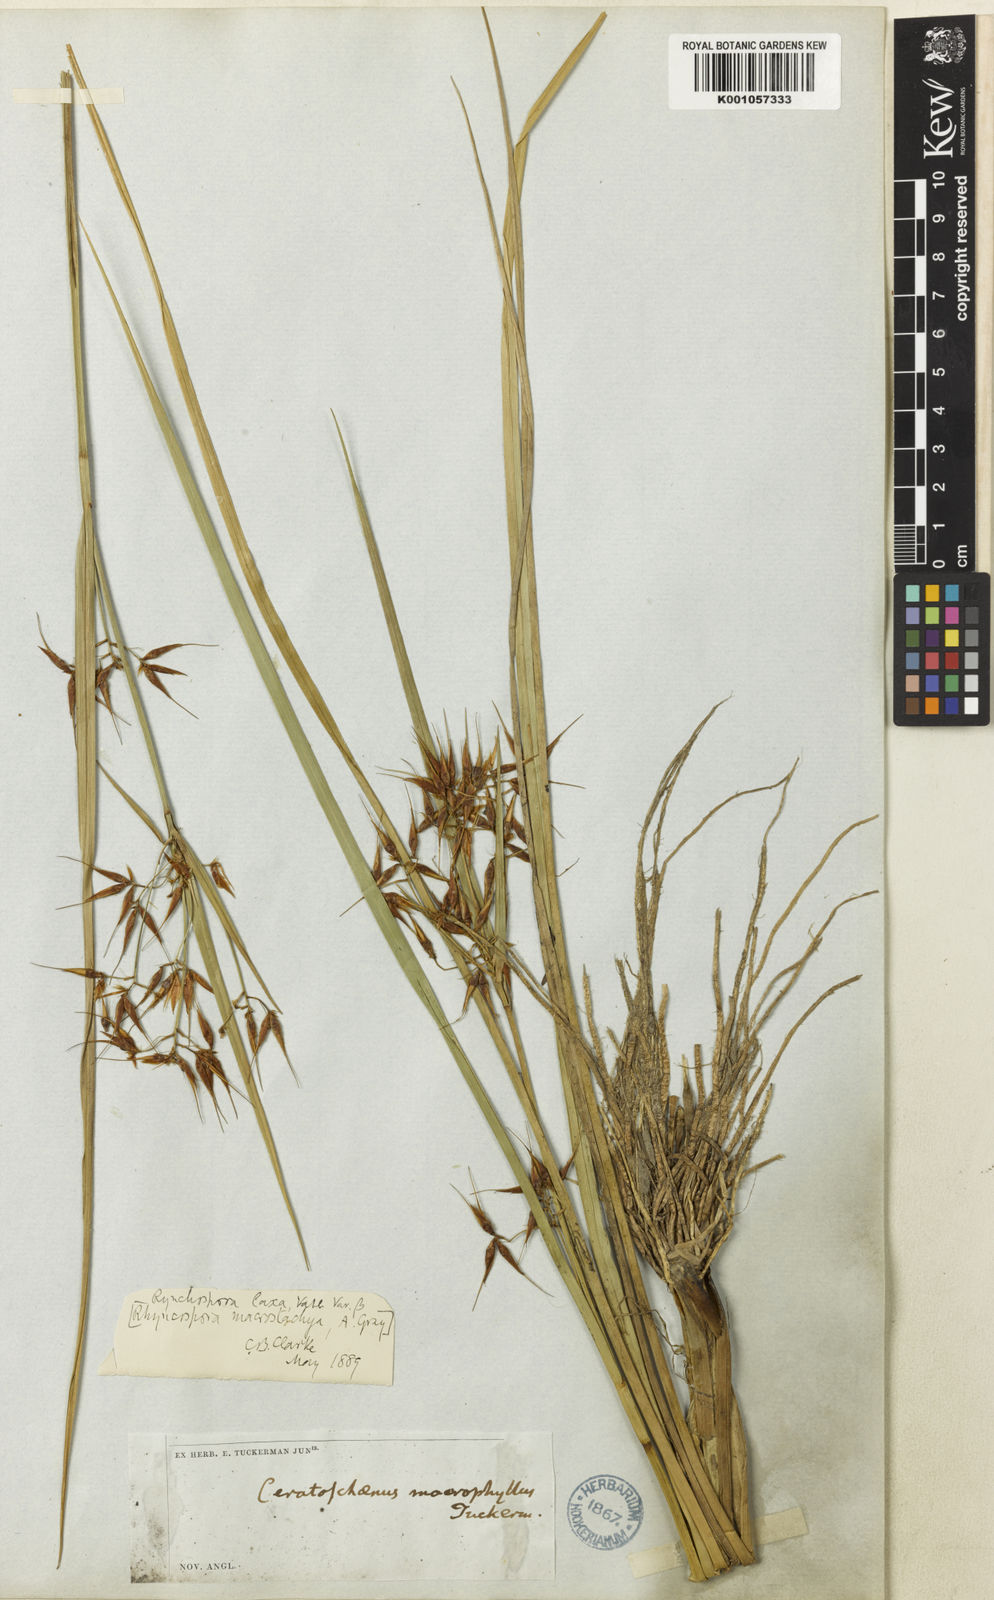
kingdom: Plantae
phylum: Tracheophyta
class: Liliopsida
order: Poales
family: Cyperaceae
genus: Rhynchospora
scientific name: Rhynchospora corniculata
